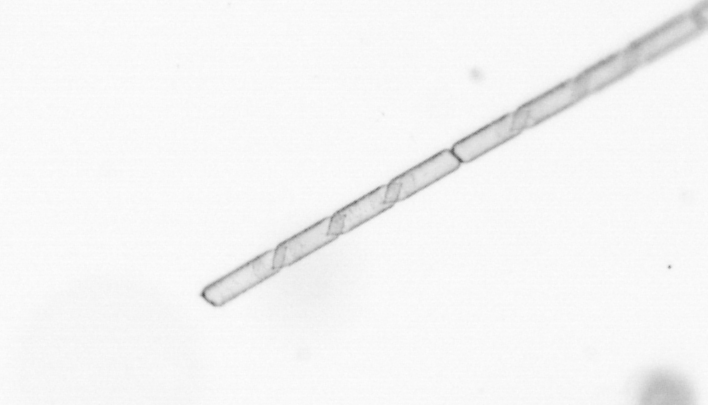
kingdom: Chromista
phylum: Ochrophyta
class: Bacillariophyceae
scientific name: Bacillariophyceae
